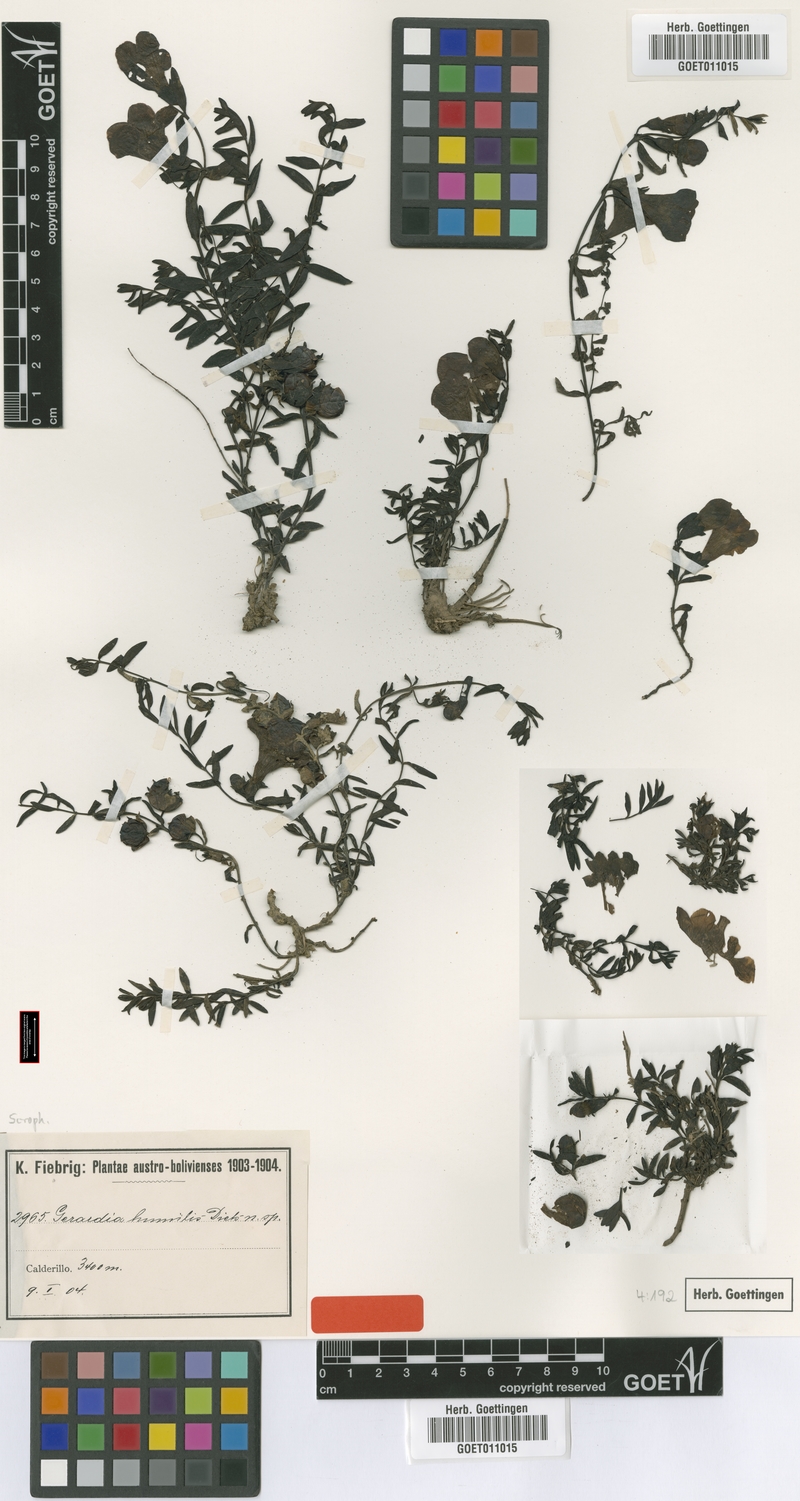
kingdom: Plantae
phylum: Tracheophyta
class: Magnoliopsida
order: Lamiales
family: Orobanchaceae
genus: Agalinis
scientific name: Agalinis humilis
